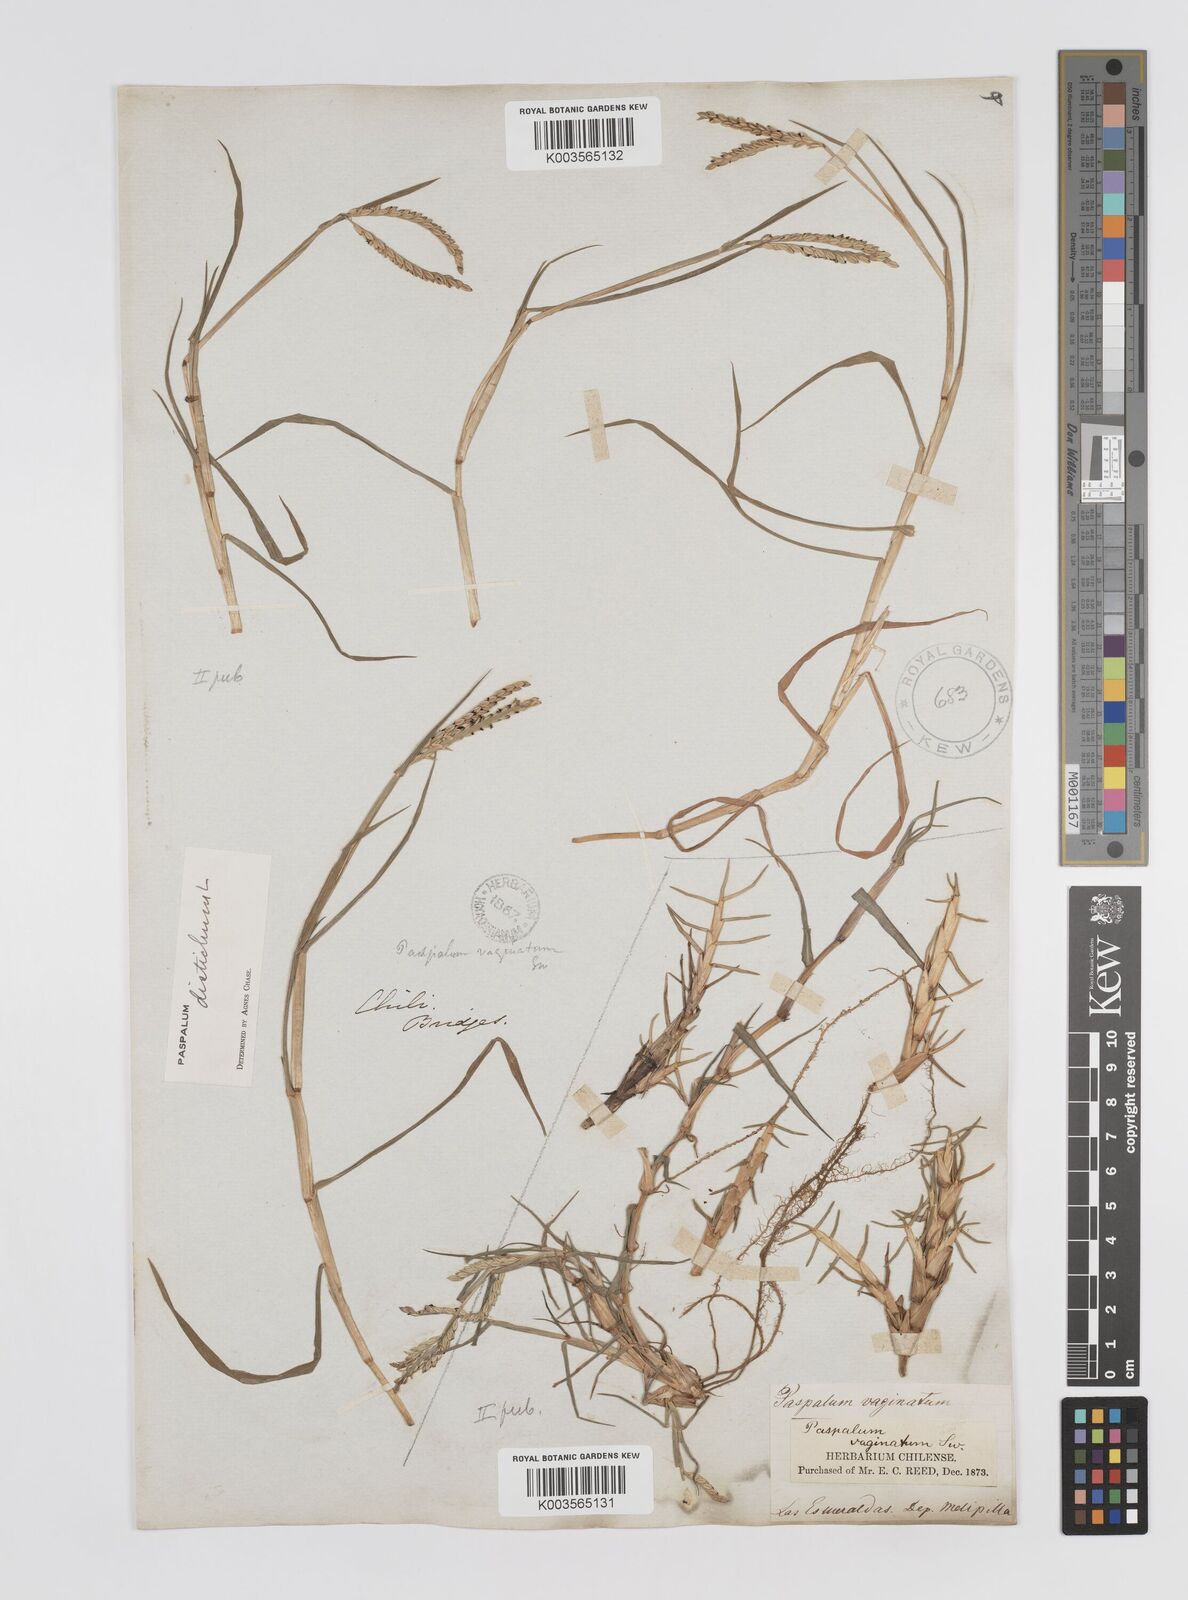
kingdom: Plantae
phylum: Tracheophyta
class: Liliopsida
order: Poales
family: Poaceae
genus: Paspalum
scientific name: Paspalum distichum
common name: Knotgrass
